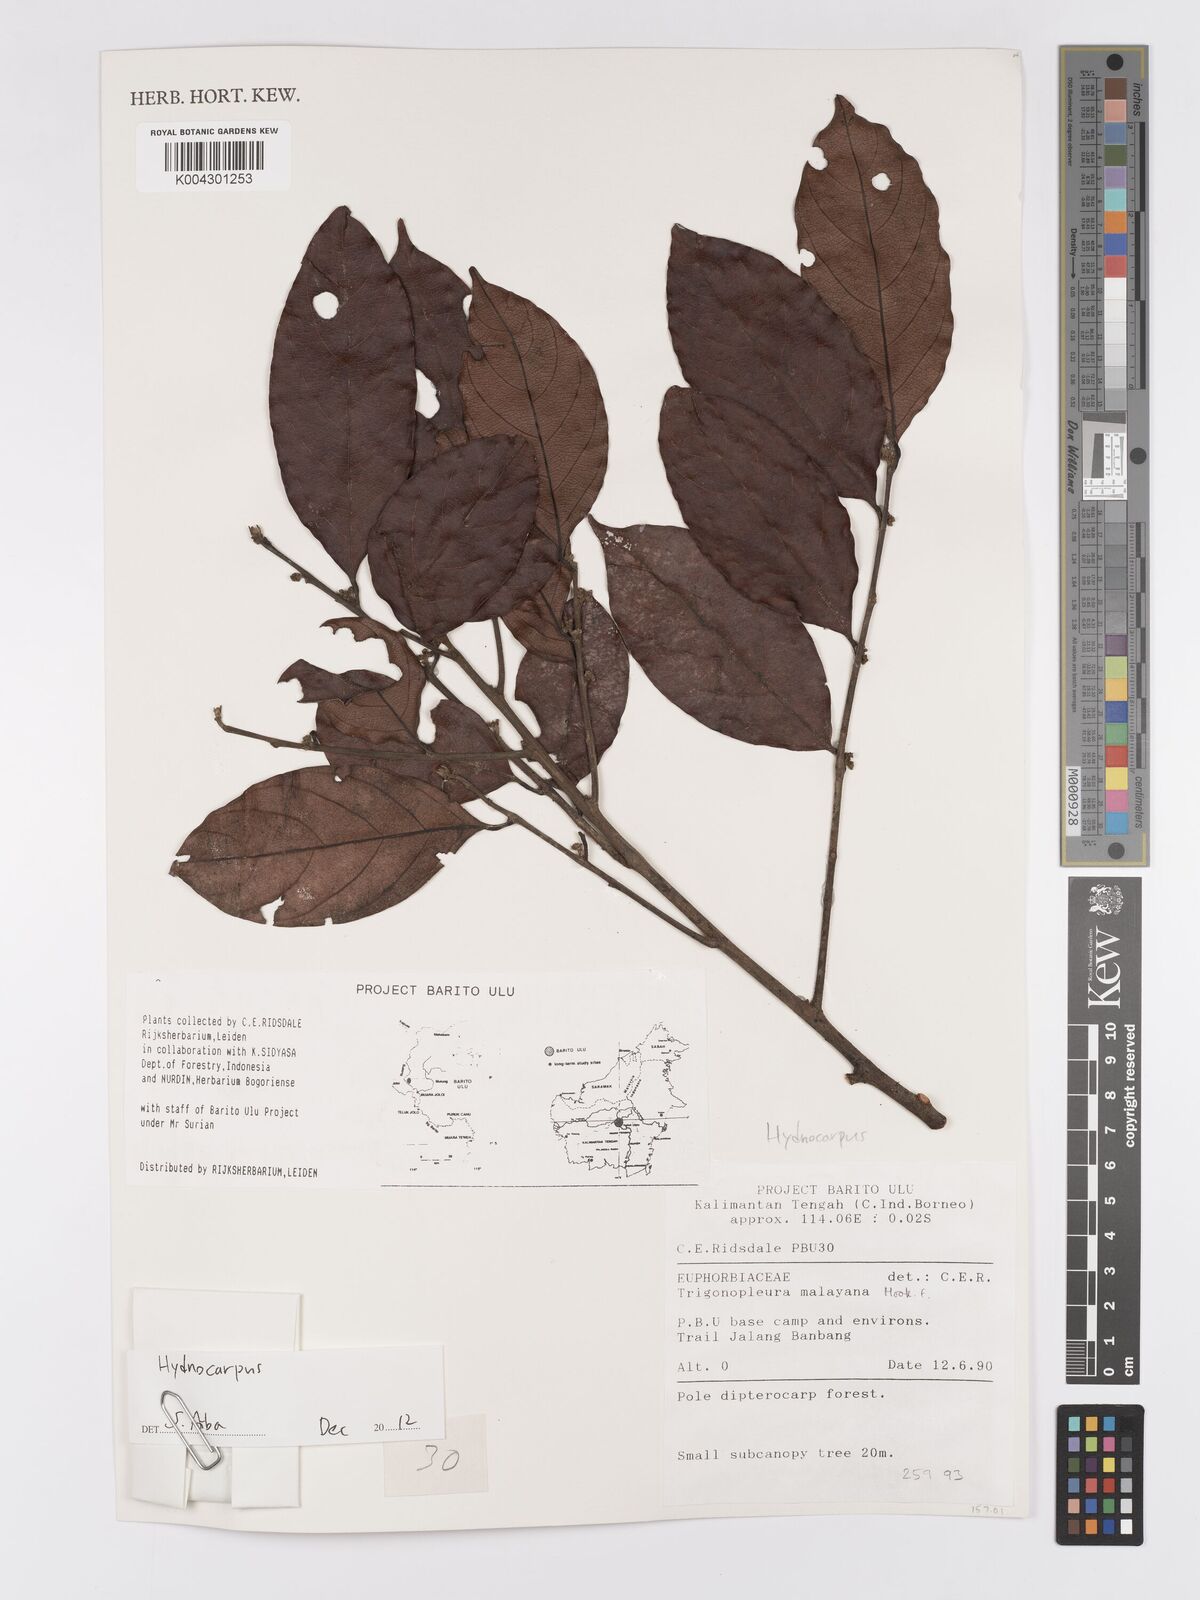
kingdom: Plantae
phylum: Tracheophyta
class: Magnoliopsida
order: Malpighiales
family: Achariaceae
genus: Hydnocarpus
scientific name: Hydnocarpus
